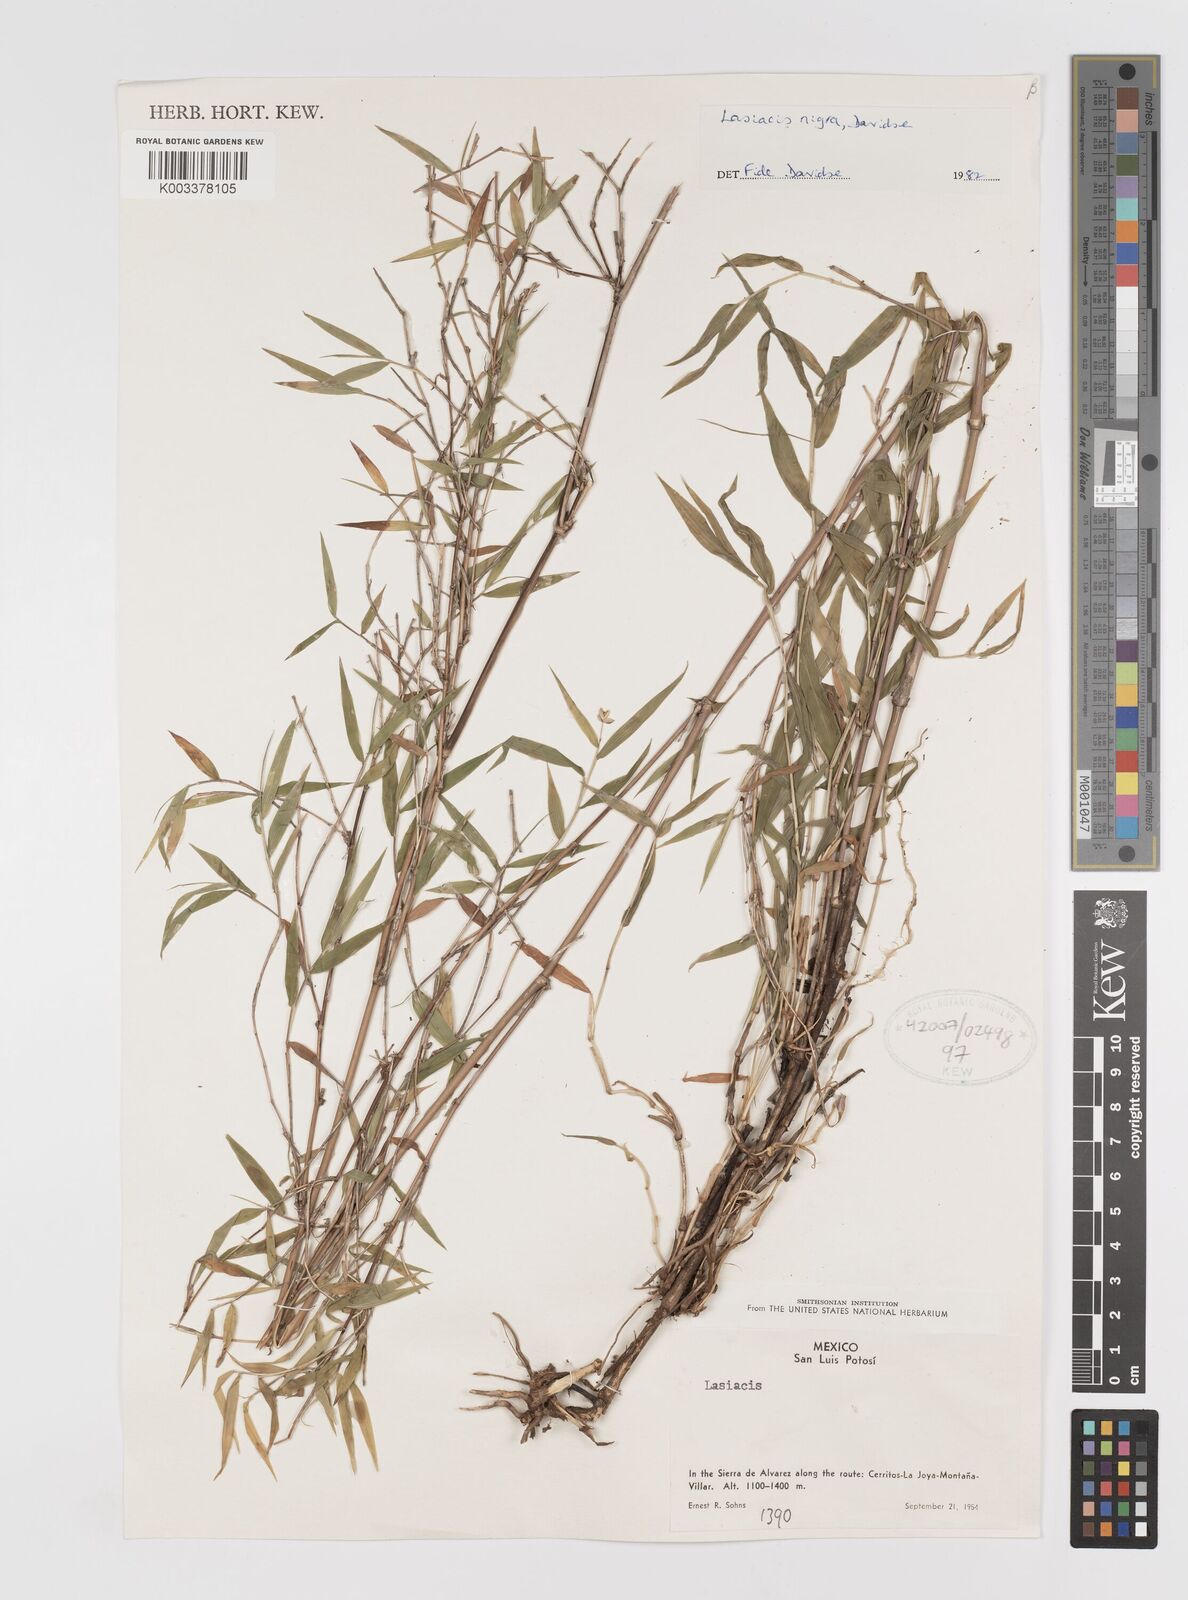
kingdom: Plantae
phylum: Tracheophyta
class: Liliopsida
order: Poales
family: Poaceae
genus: Lasiacis
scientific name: Lasiacis nigra
